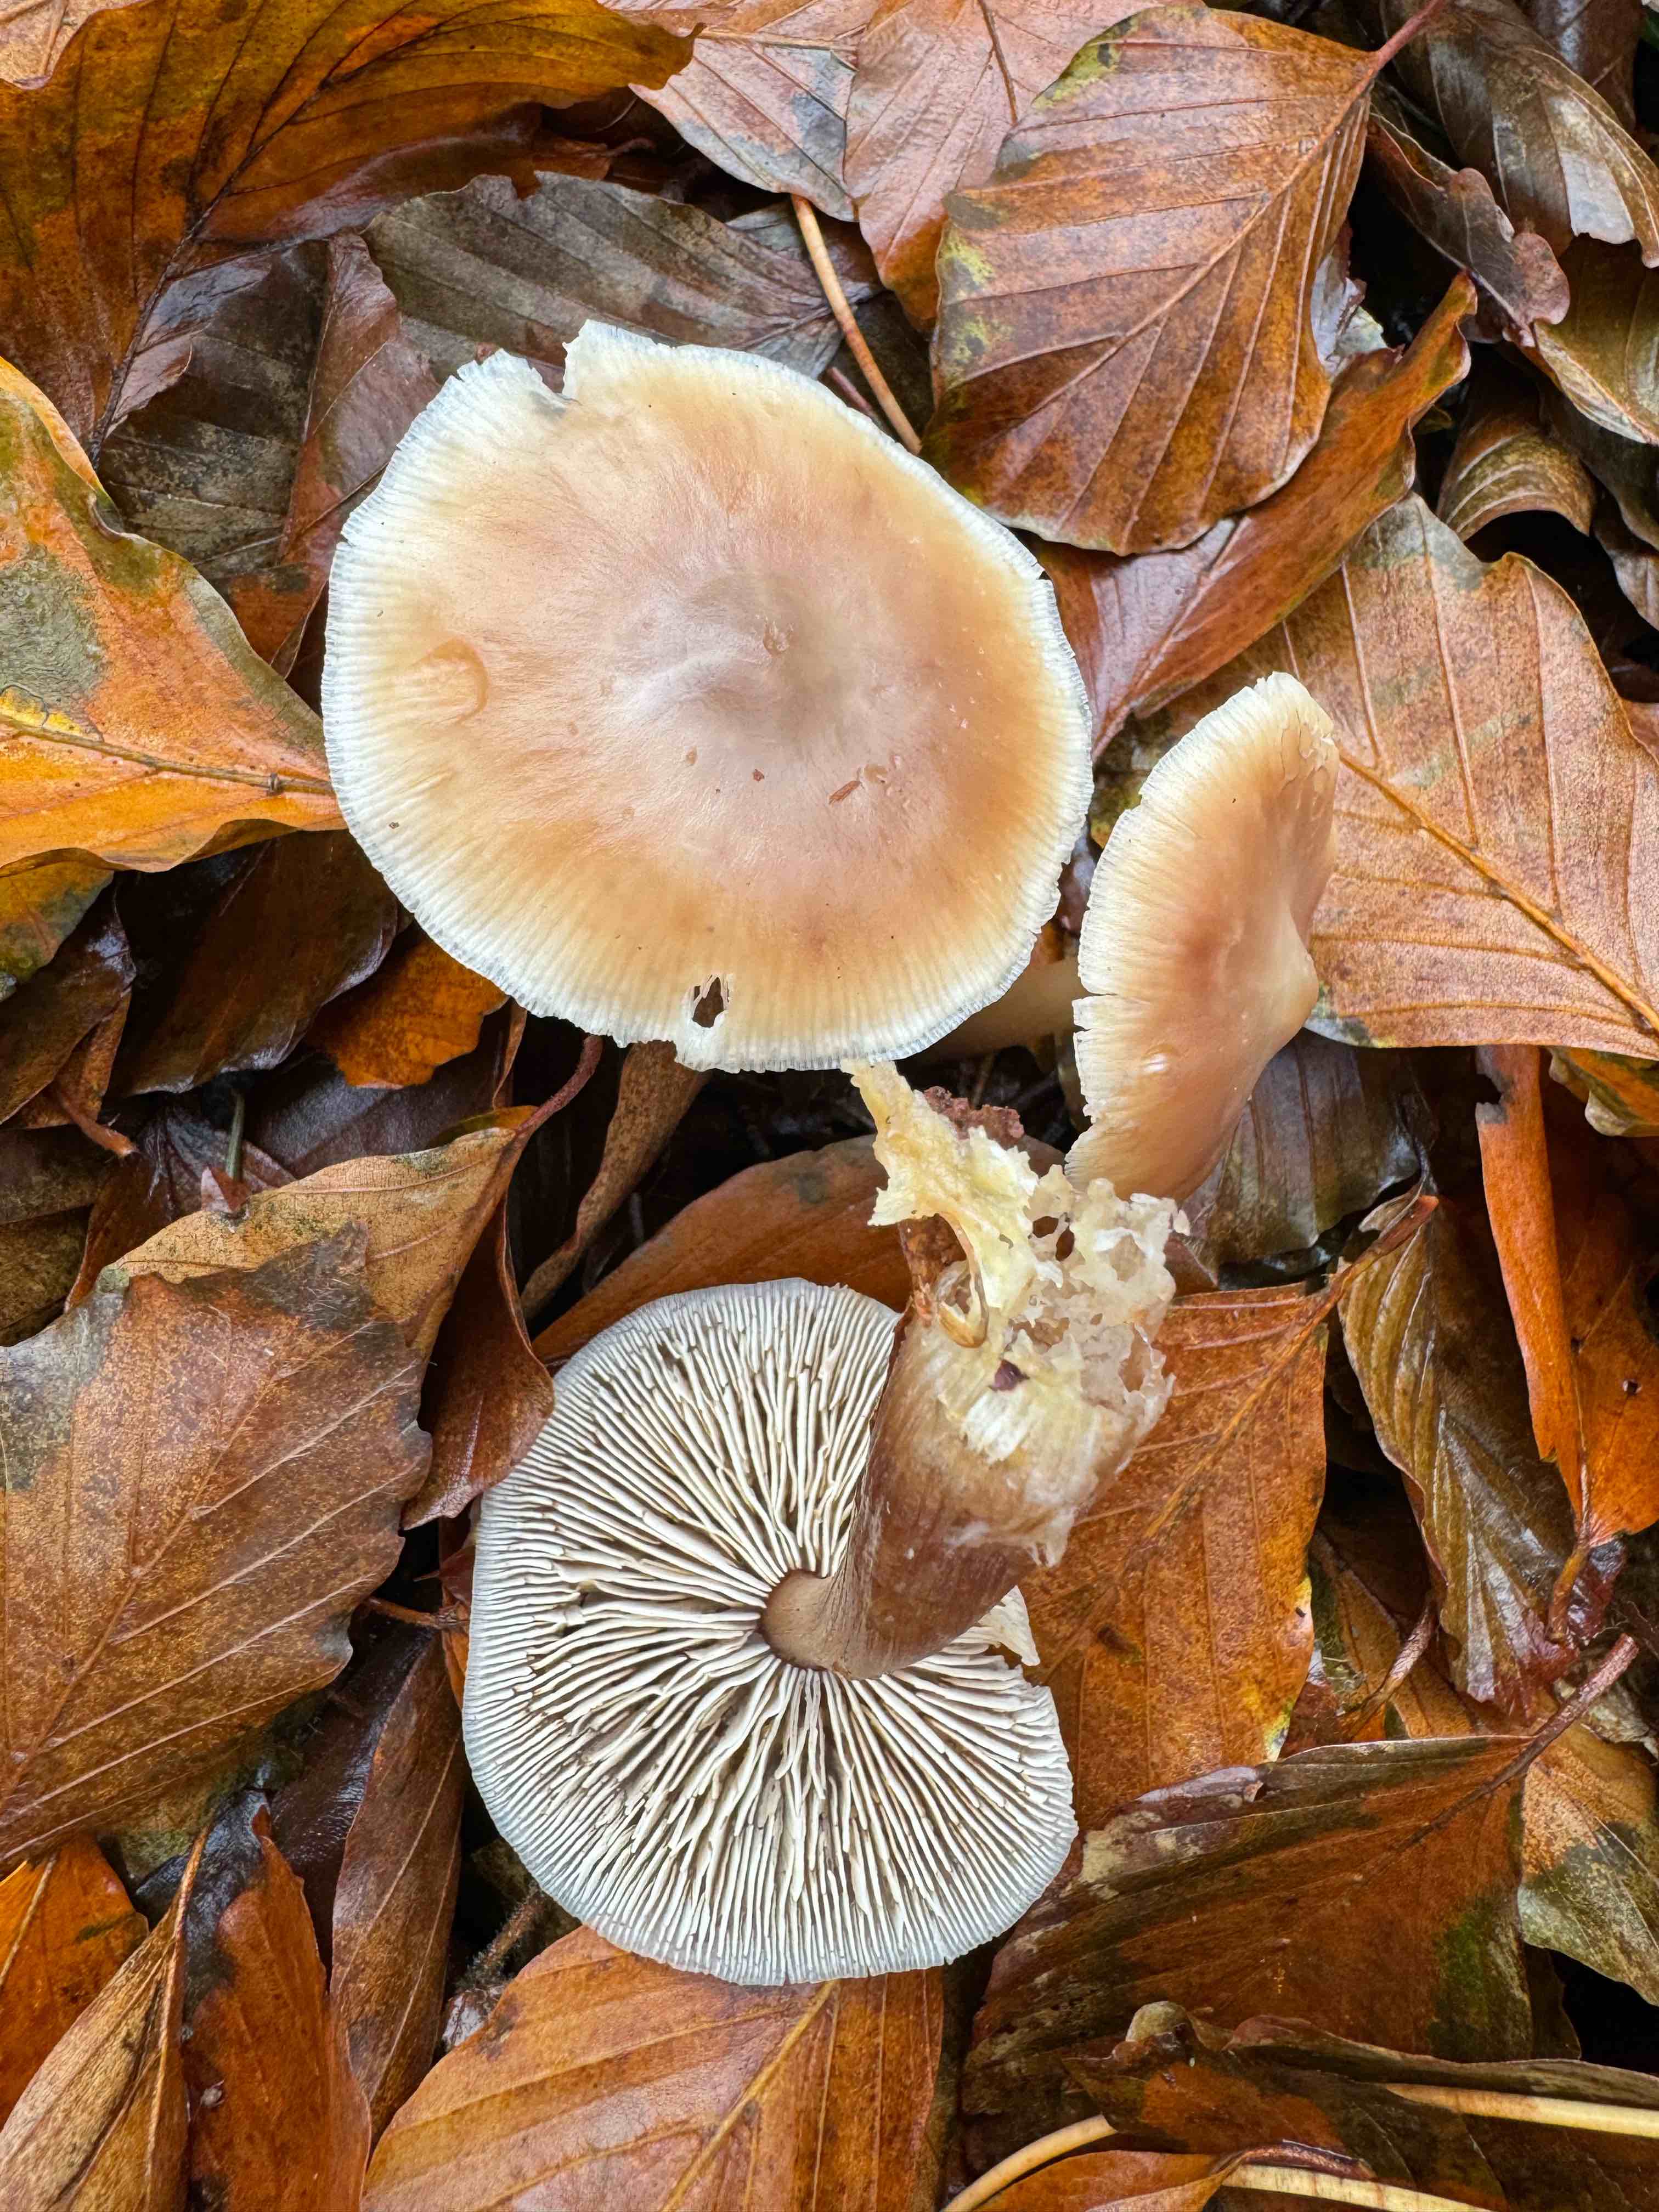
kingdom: Fungi
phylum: Basidiomycota
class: Agaricomycetes
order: Agaricales
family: Omphalotaceae
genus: Rhodocollybia
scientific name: Rhodocollybia asema
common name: horngrå fladhat
